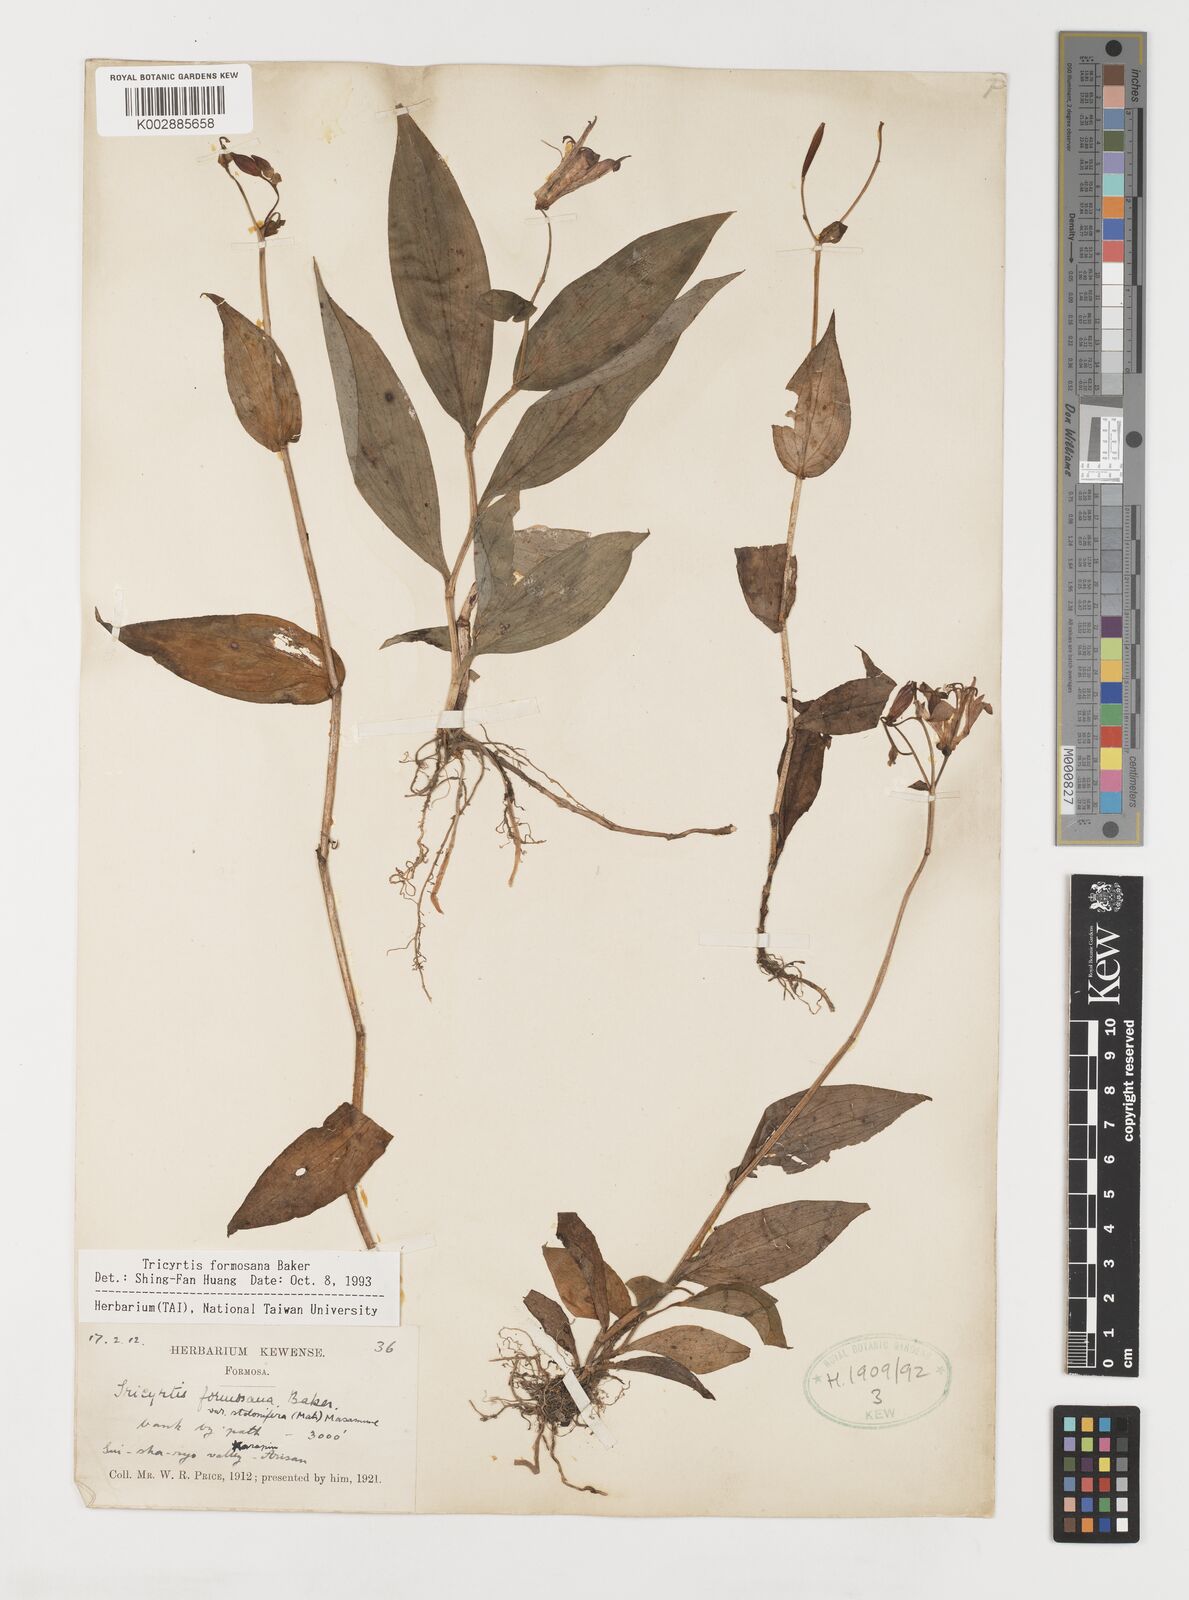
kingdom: Plantae
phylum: Tracheophyta
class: Liliopsida
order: Liliales
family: Liliaceae
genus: Tricyrtis
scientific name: Tricyrtis formosana
